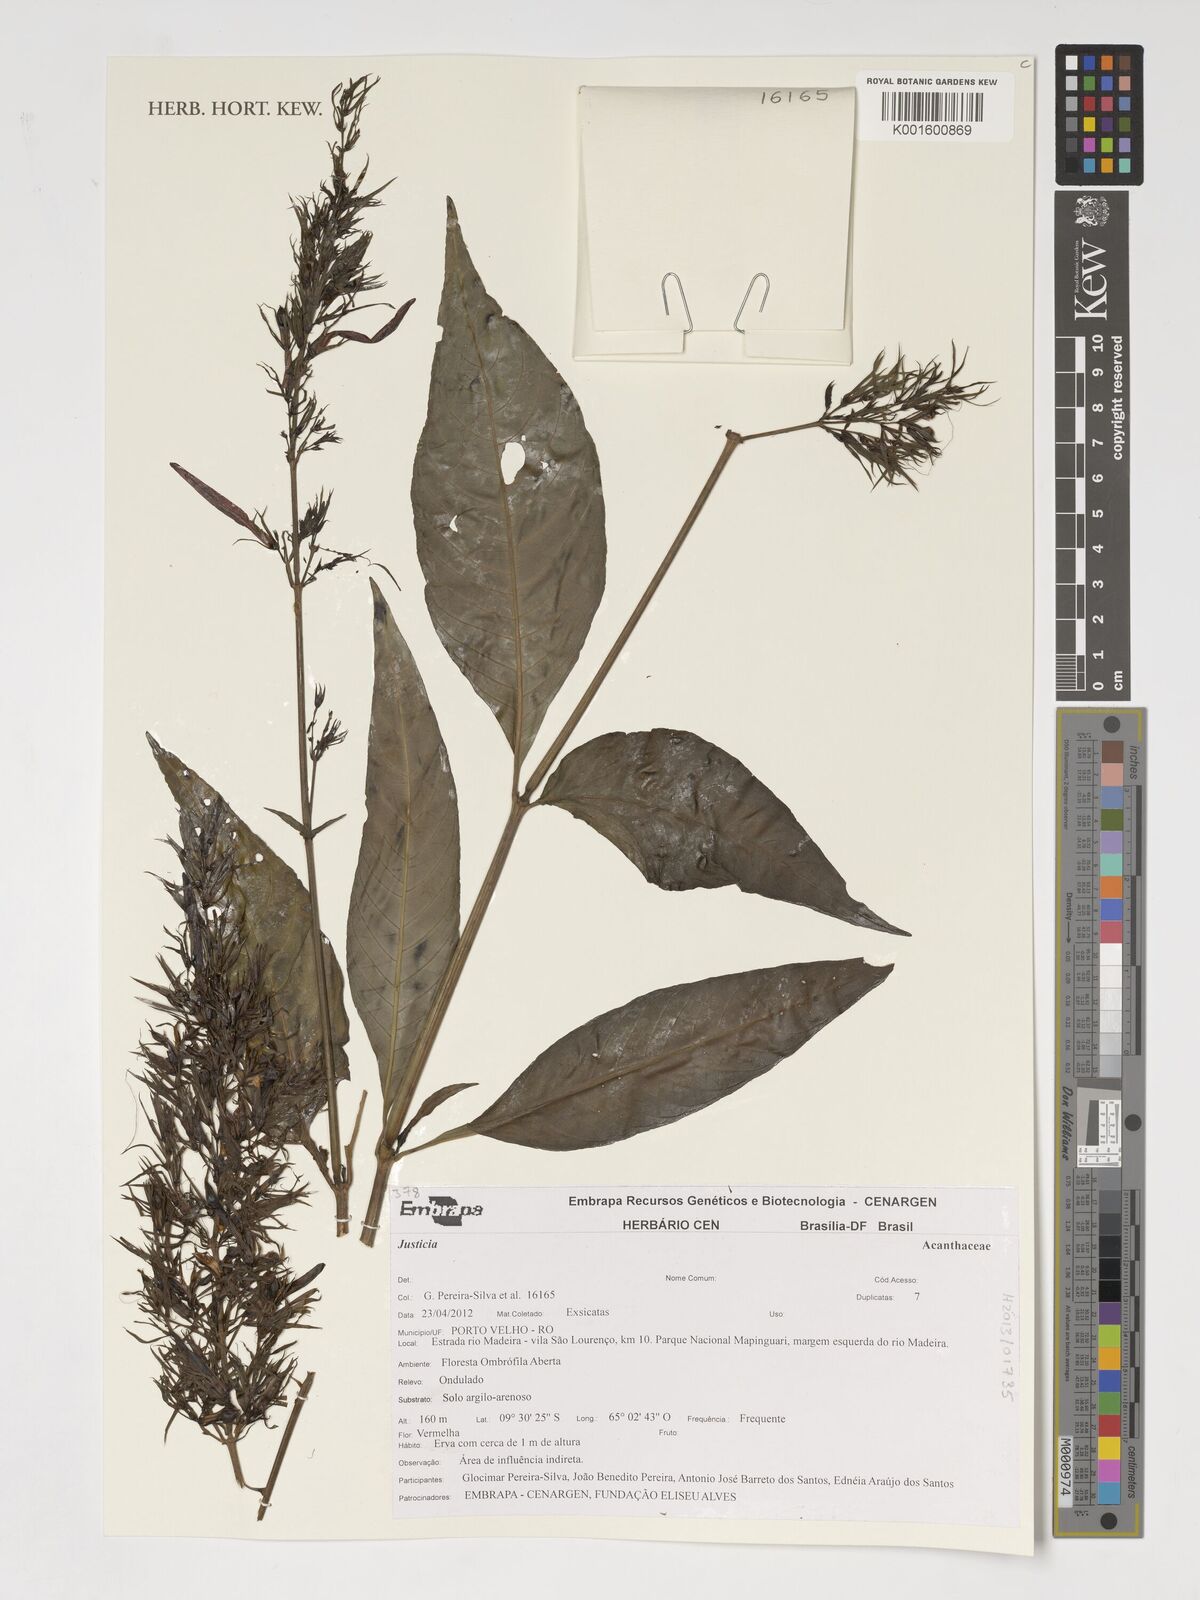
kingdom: Plantae
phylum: Tracheophyta
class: Magnoliopsida
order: Lamiales
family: Acanthaceae
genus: Justicia
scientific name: Justicia
